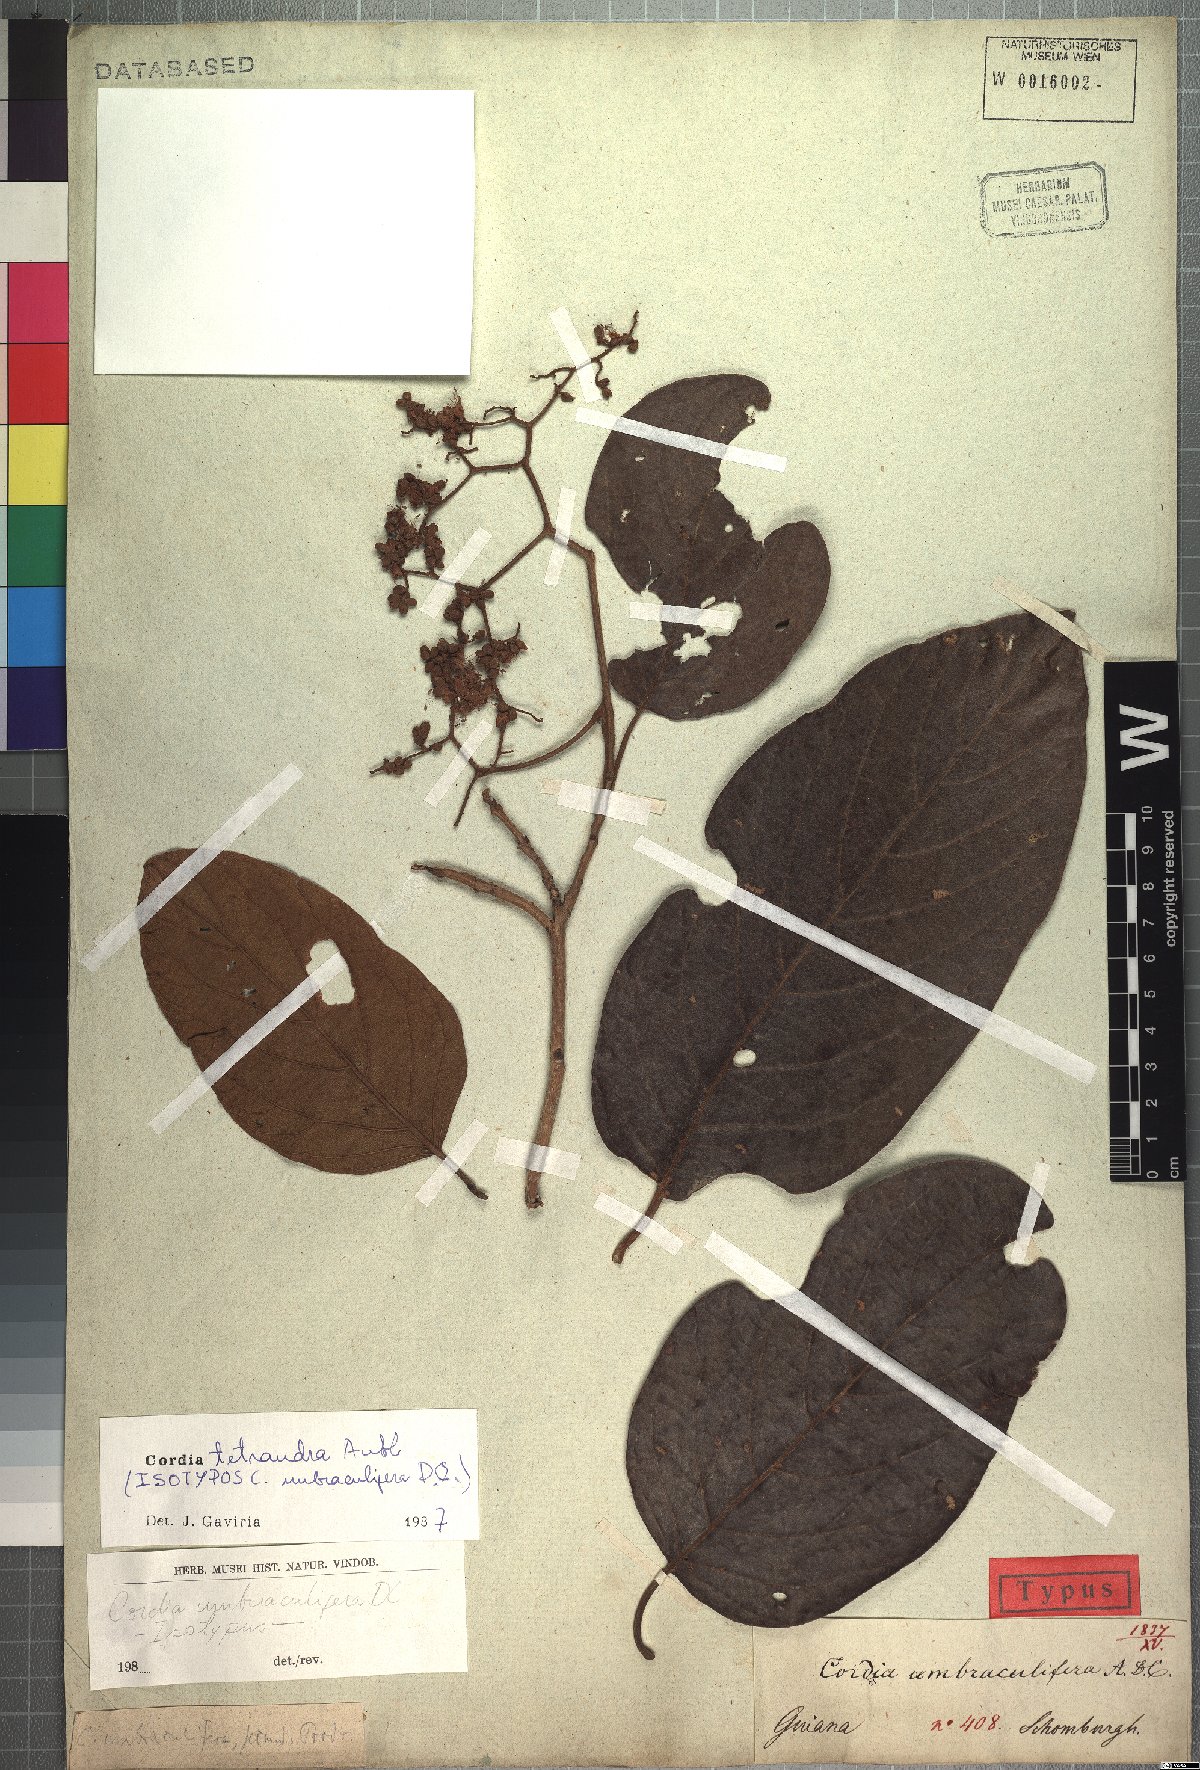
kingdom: Plantae
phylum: Tracheophyta
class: Magnoliopsida
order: Boraginales
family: Cordiaceae
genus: Cordia
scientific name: Cordia tetrandra
